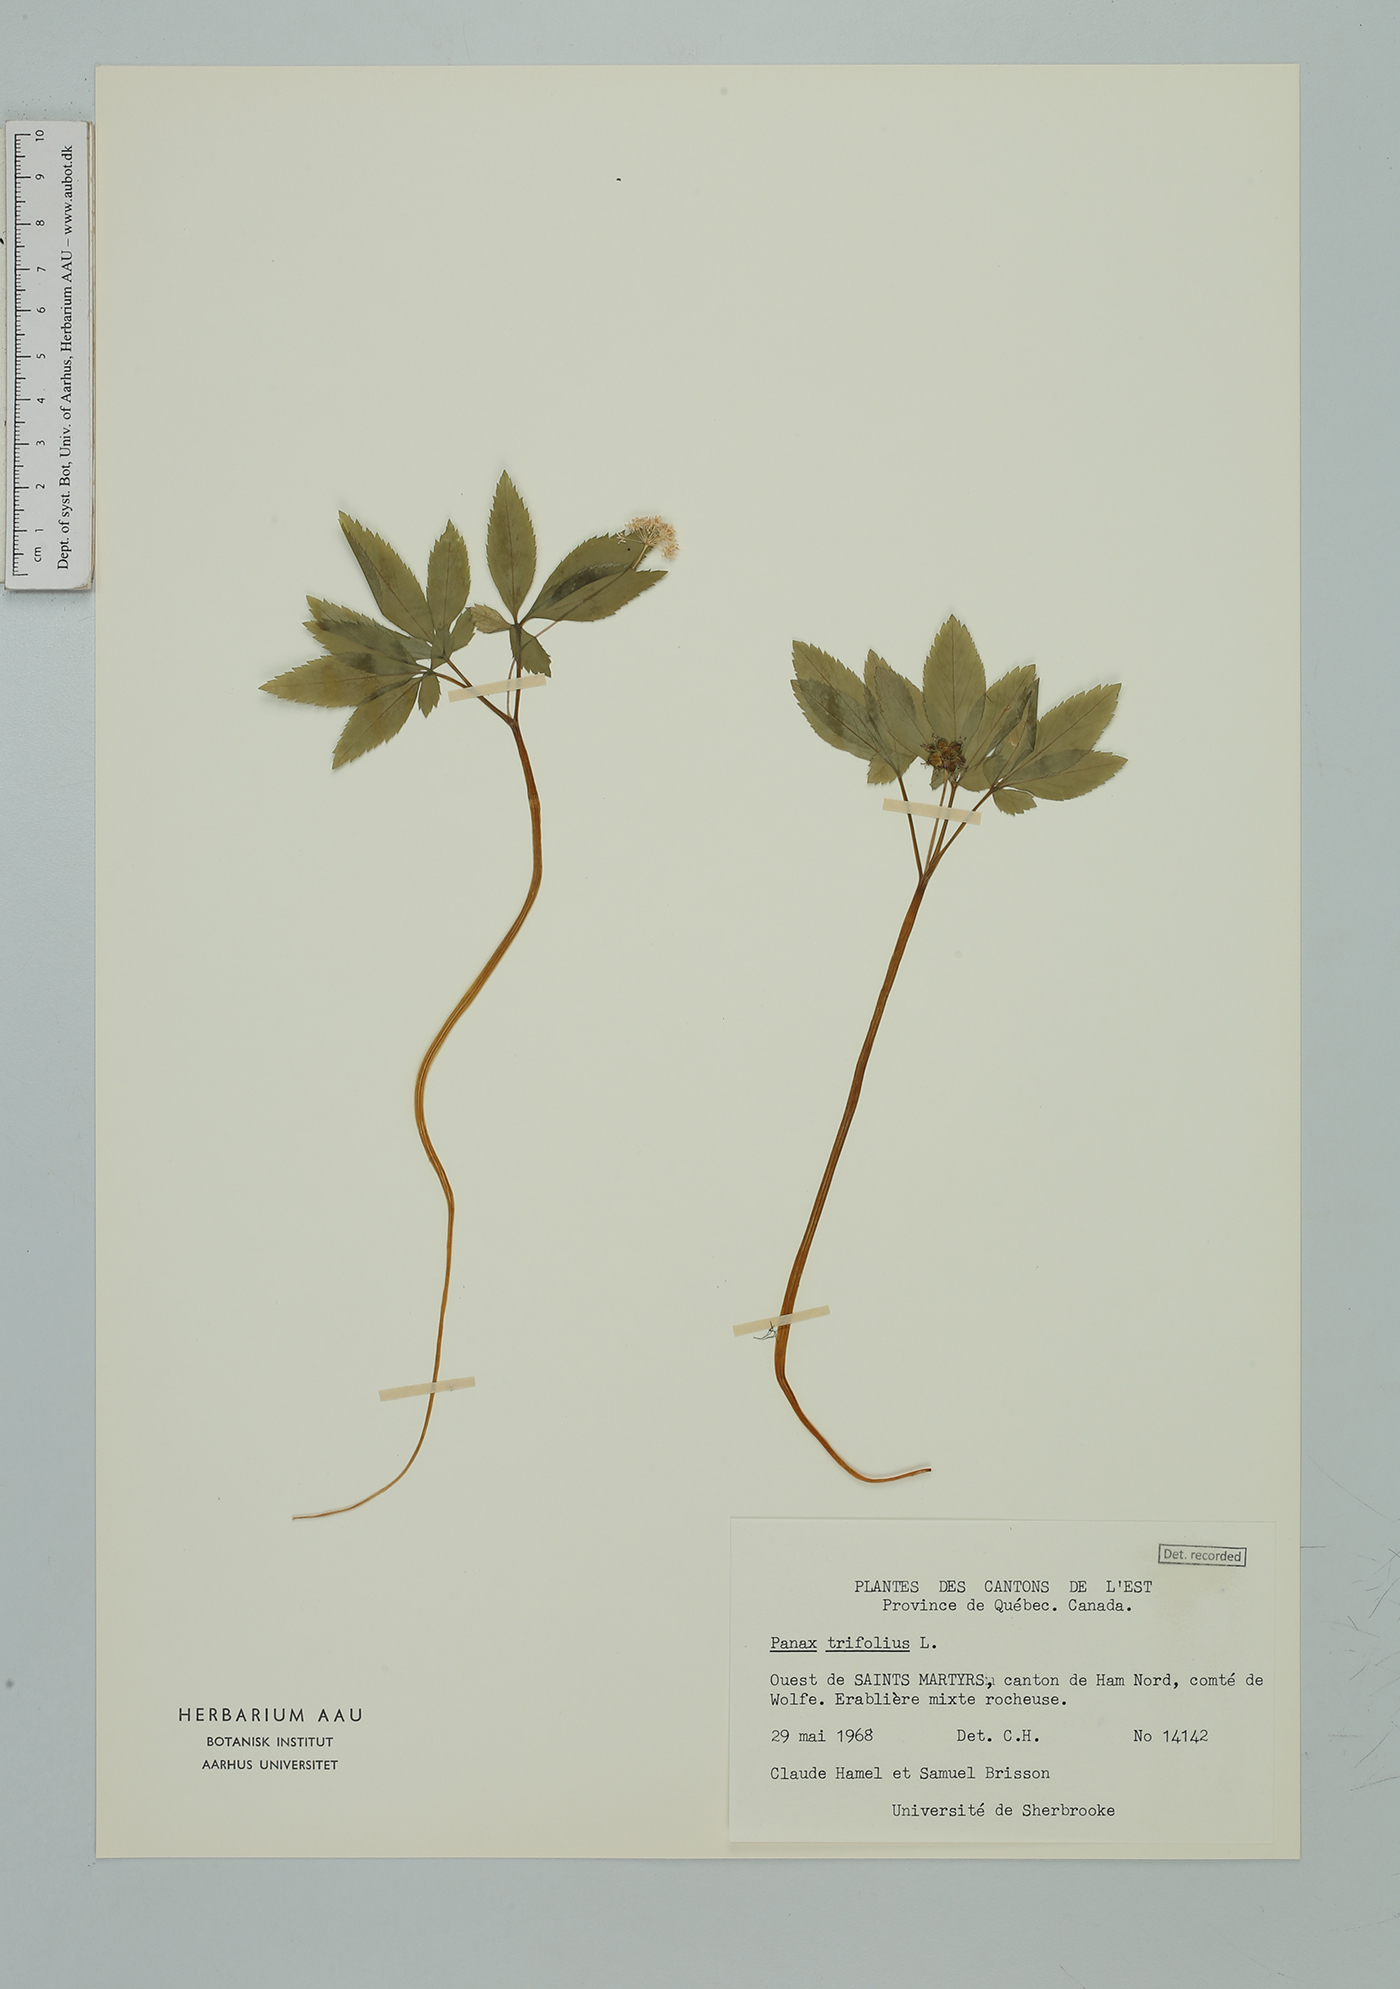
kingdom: Plantae
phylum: Tracheophyta
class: Magnoliopsida
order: Apiales
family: Araliaceae
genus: Panax
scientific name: Panax trifolius
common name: Dwarf ginseng
